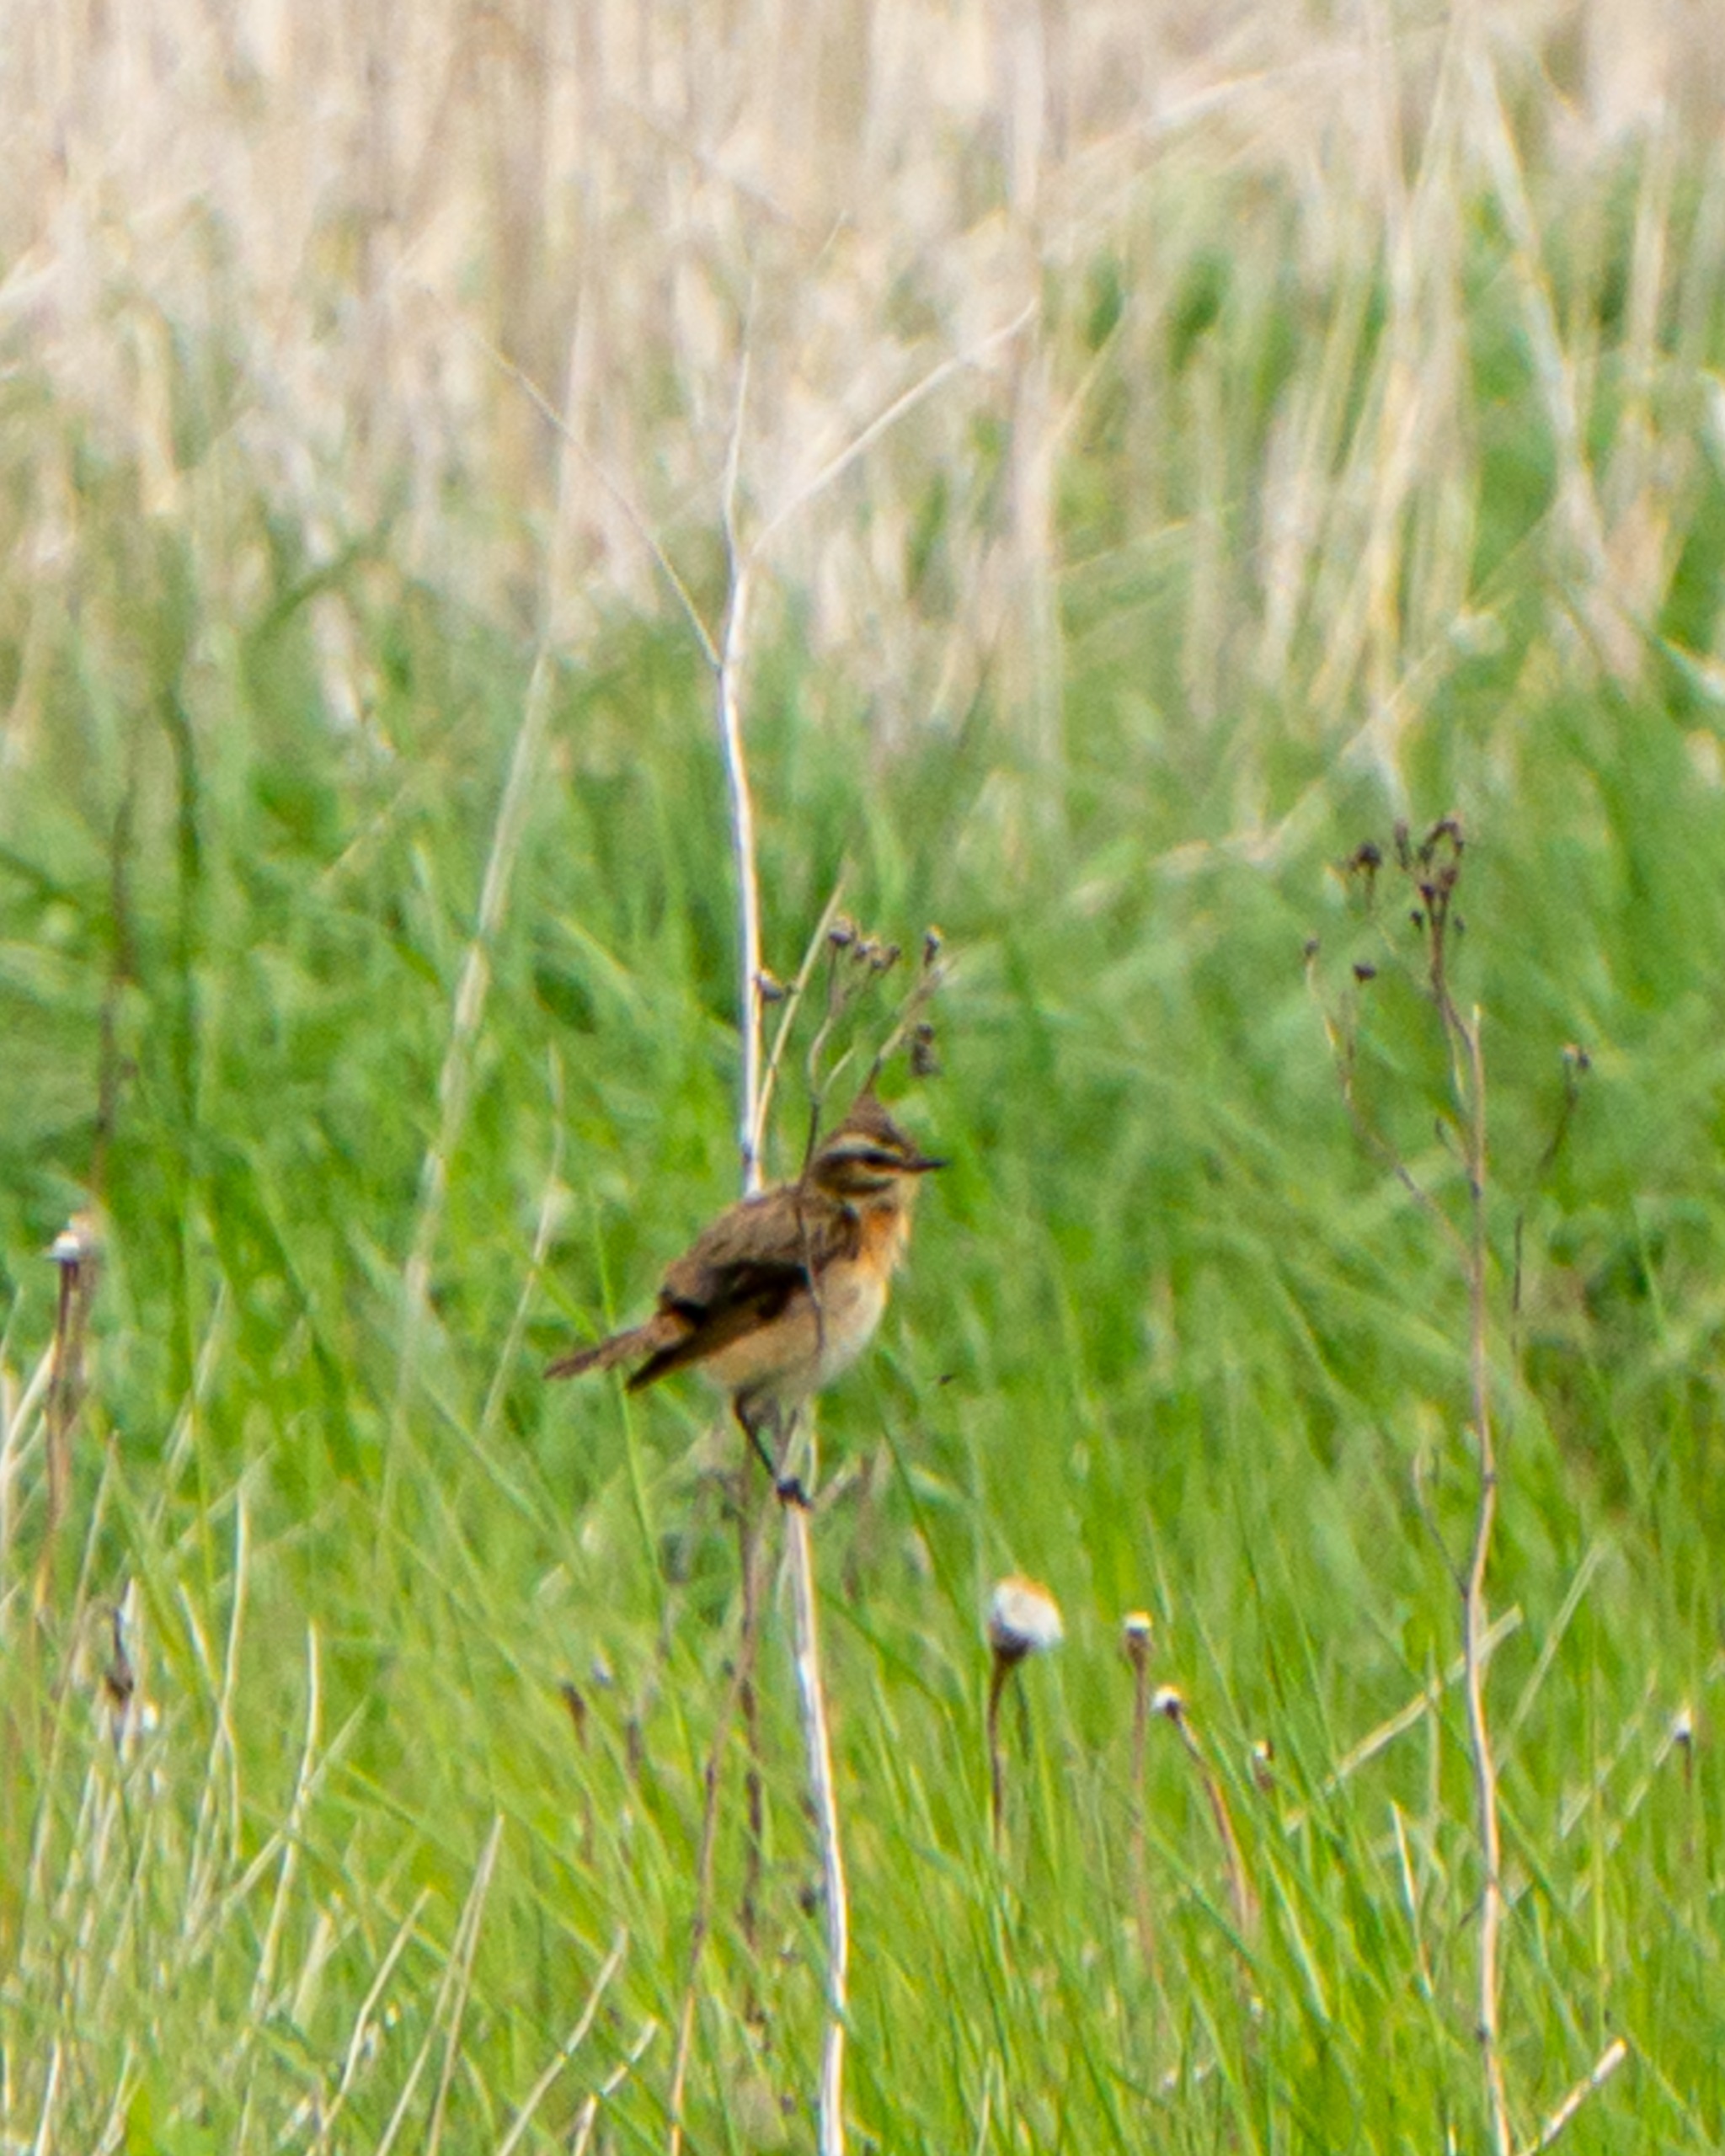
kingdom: Animalia
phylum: Chordata
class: Aves
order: Passeriformes
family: Muscicapidae
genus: Saxicola
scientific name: Saxicola rubetra
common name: Bynkefugl
